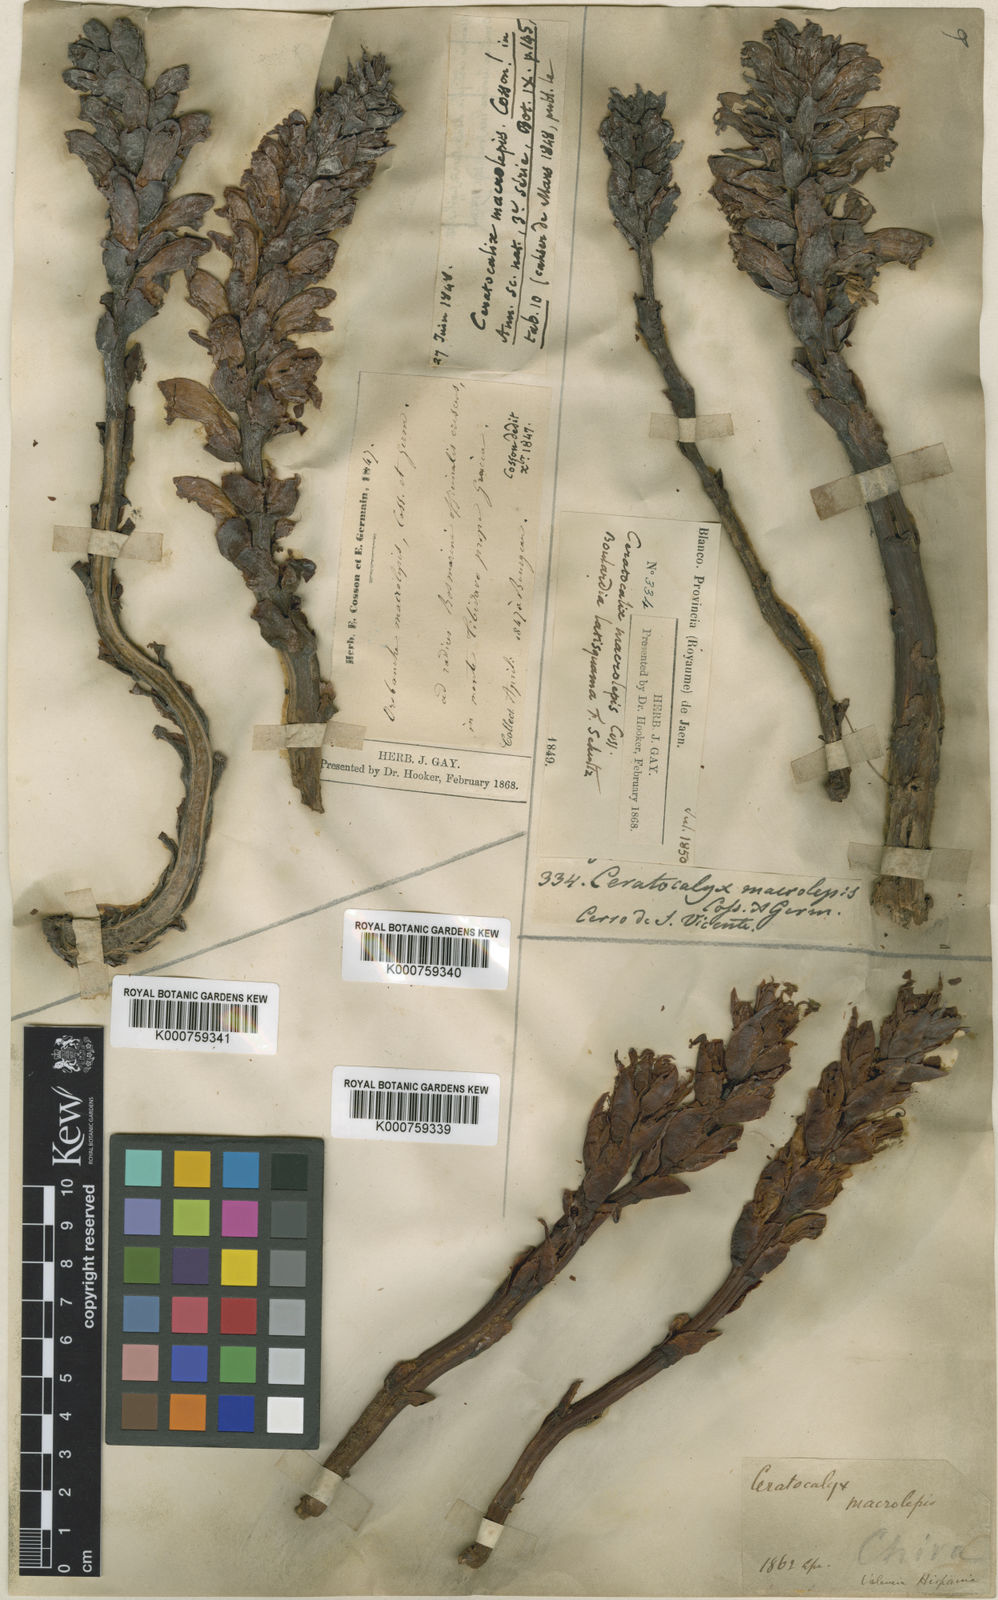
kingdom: Plantae
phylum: Tracheophyta
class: Magnoliopsida
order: Lamiales
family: Orobanchaceae
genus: Orobanche
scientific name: Orobanche
